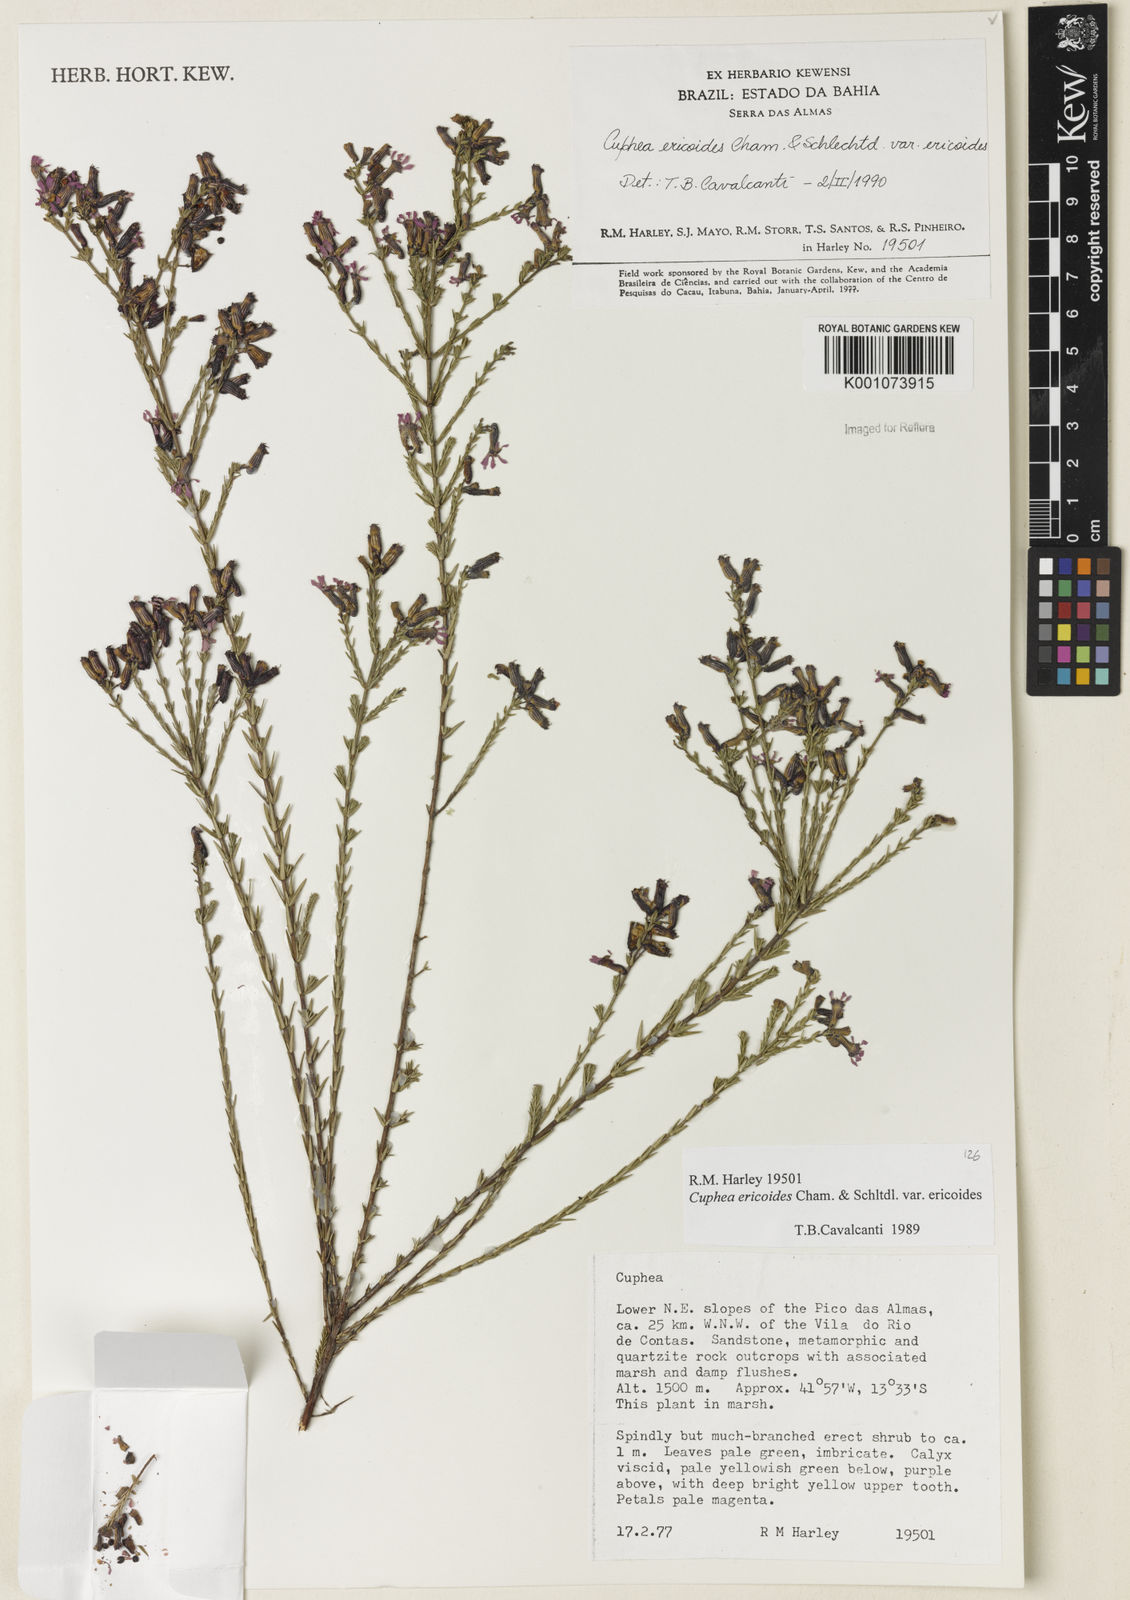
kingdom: Plantae
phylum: Tracheophyta
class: Magnoliopsida
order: Myrtales
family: Lythraceae
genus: Cuphea
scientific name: Cuphea ericoides
